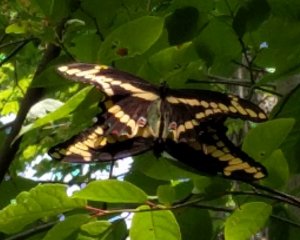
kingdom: Animalia
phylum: Arthropoda
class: Insecta
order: Lepidoptera
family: Papilionidae
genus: Papilio
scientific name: Papilio cresphontes
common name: Eastern Giant Swallowtail
